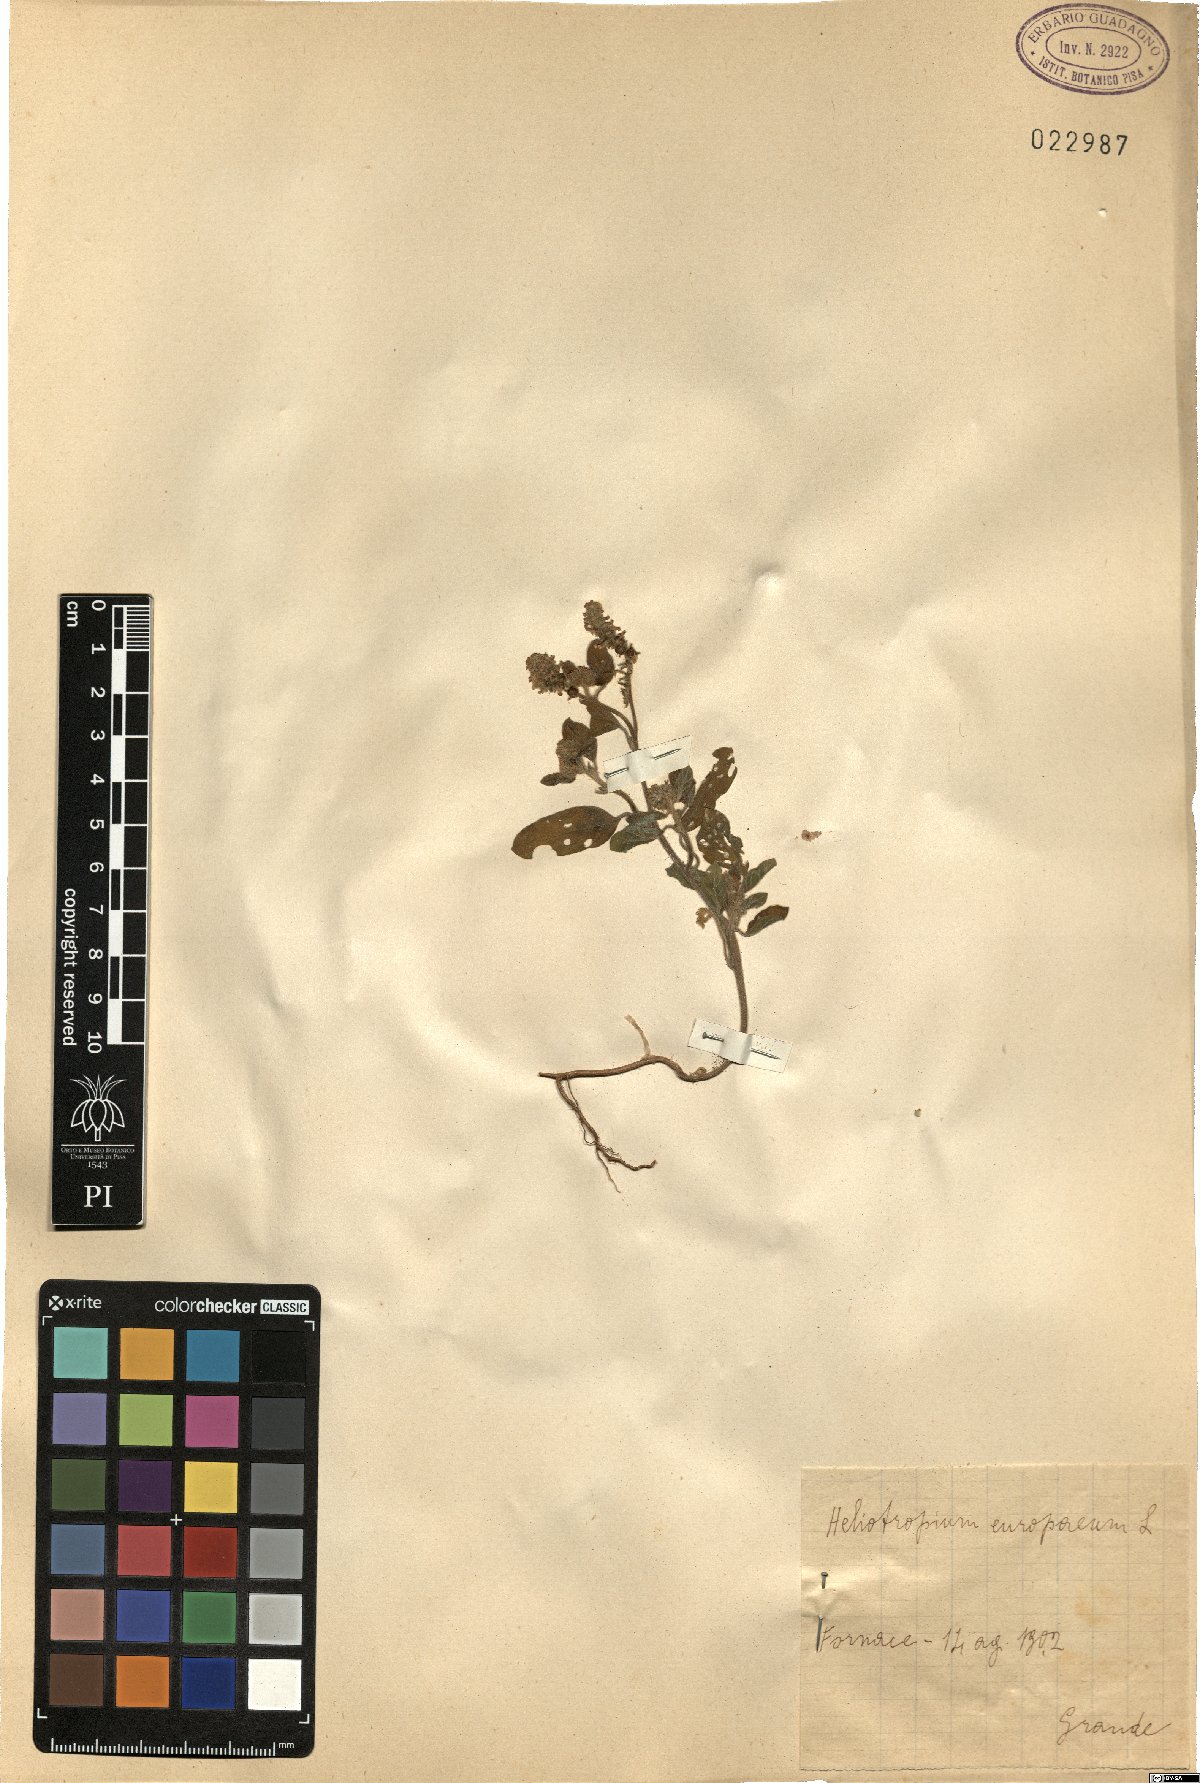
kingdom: Plantae
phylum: Tracheophyta
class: Magnoliopsida
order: Boraginales
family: Heliotropiaceae
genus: Heliotropium
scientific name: Heliotropium europaeum
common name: European heliotrope
